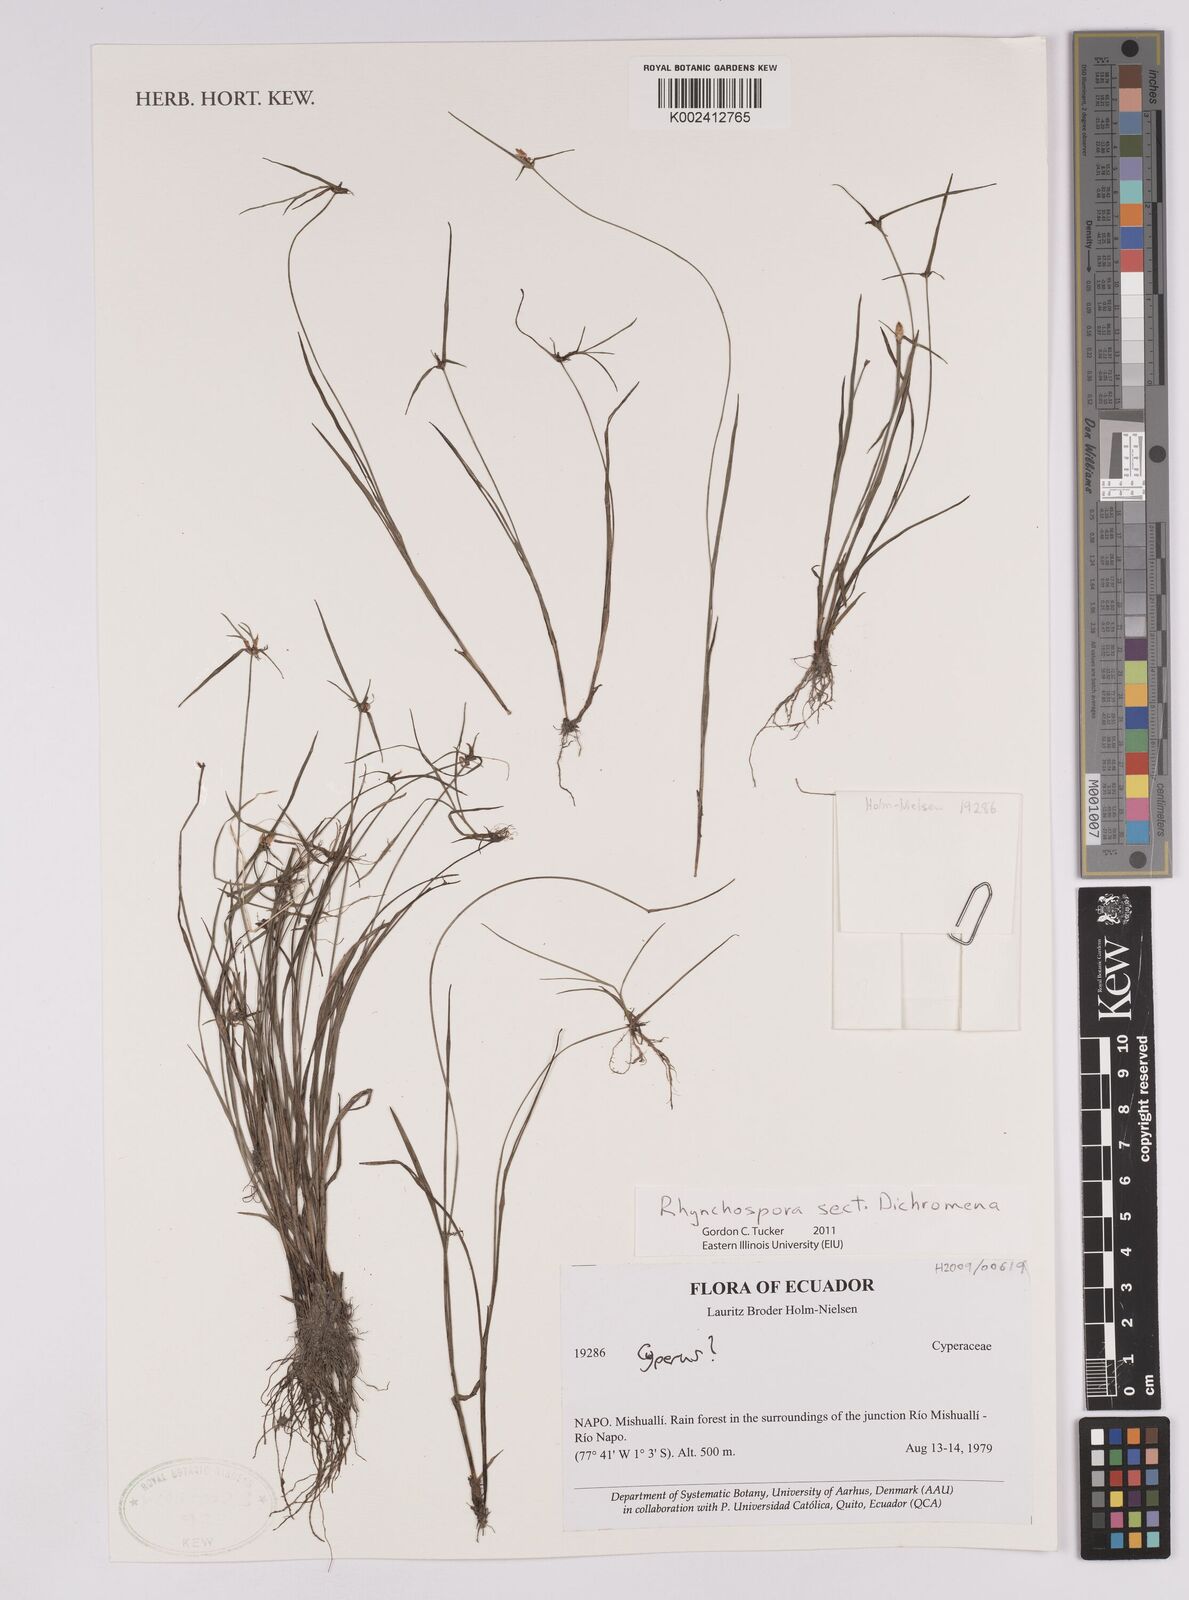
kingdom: Plantae
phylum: Tracheophyta
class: Liliopsida
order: Poales
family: Cyperaceae
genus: Rhynchospora
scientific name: Rhynchospora
